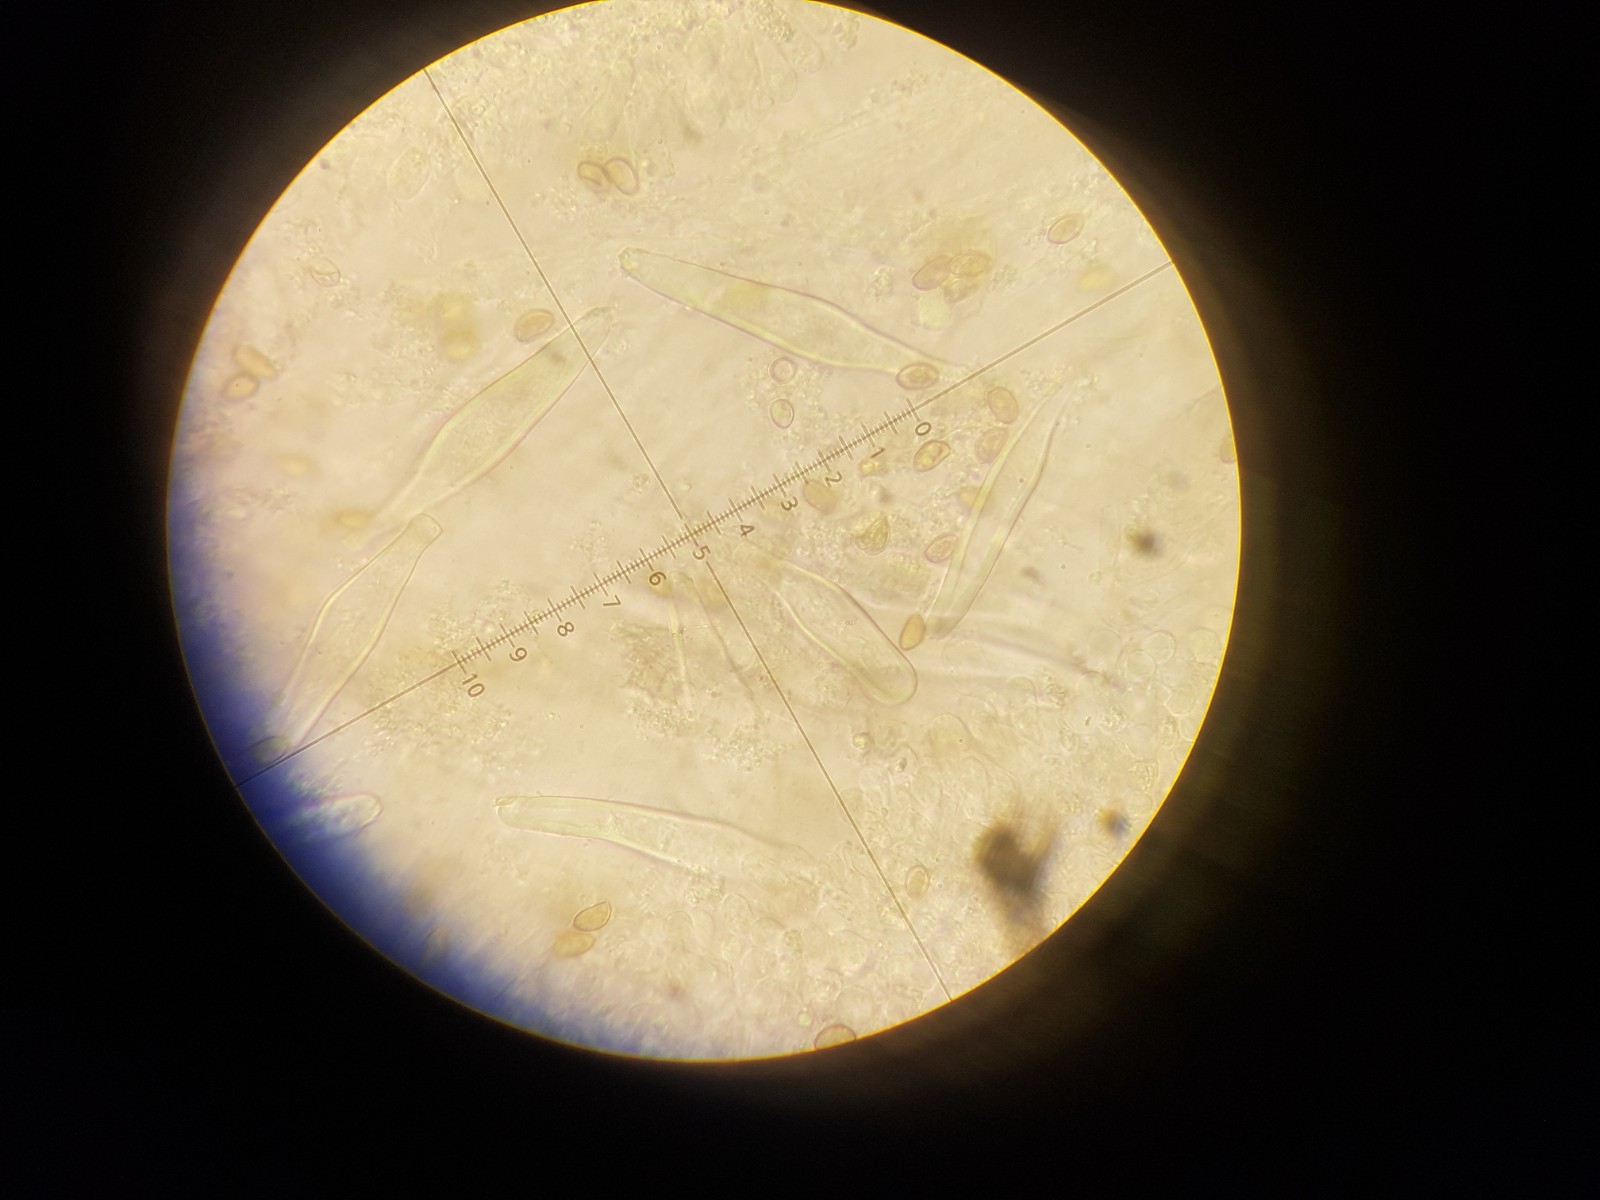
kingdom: Fungi
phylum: Basidiomycota
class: Agaricomycetes
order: Agaricales
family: Inocybaceae
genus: Inocybe
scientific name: Inocybe sindonia
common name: bleg trævlhat
